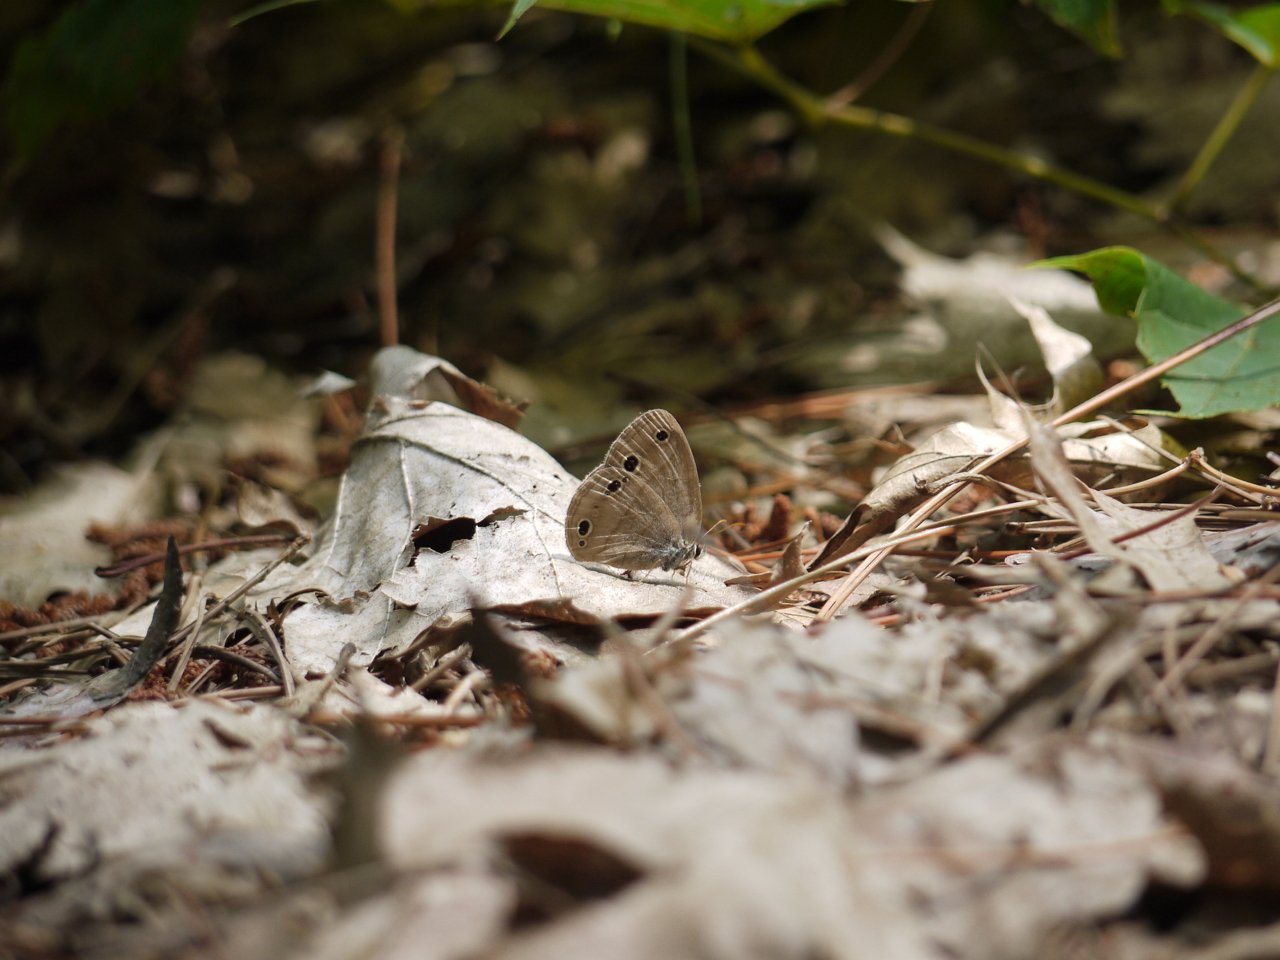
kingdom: Animalia
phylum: Arthropoda
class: Insecta
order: Lepidoptera
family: Nymphalidae
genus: Euptychia
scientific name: Euptychia cymela
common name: Little Wood Satyr
